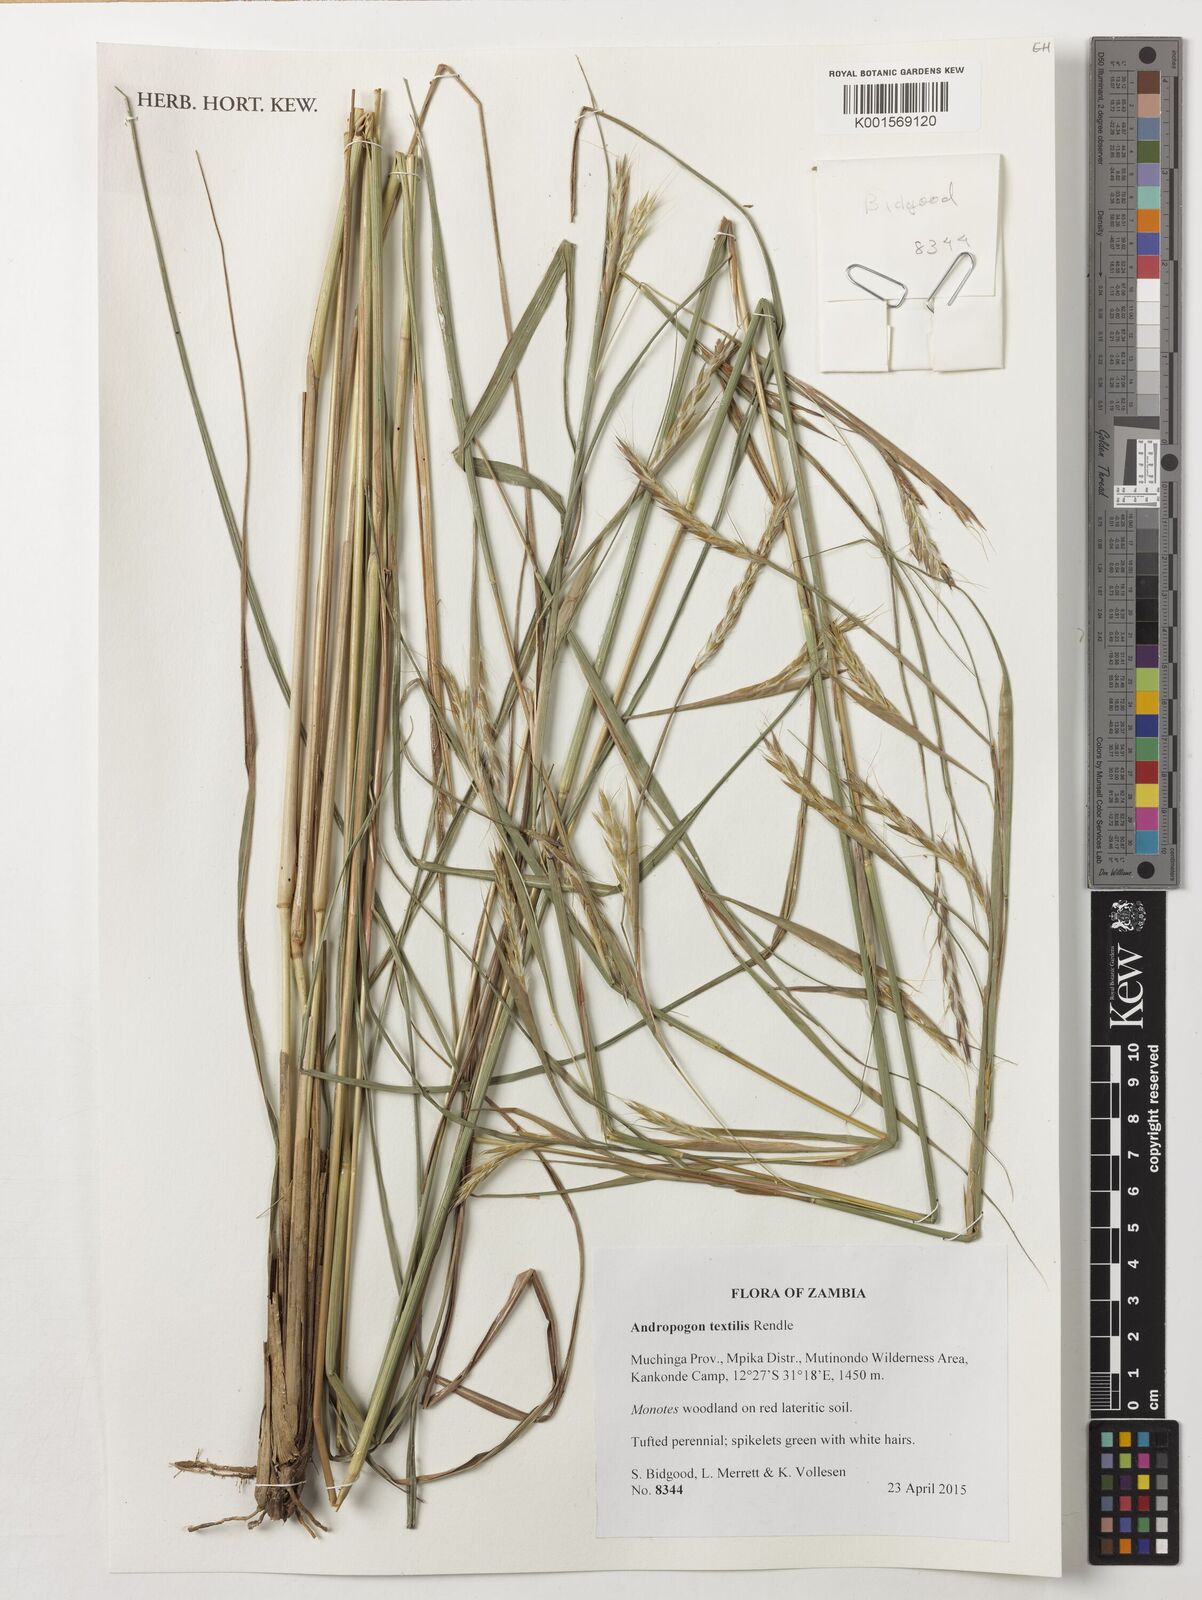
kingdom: Plantae
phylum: Tracheophyta
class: Liliopsida
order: Poales
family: Poaceae
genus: Andropogon
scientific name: Andropogon textilis
